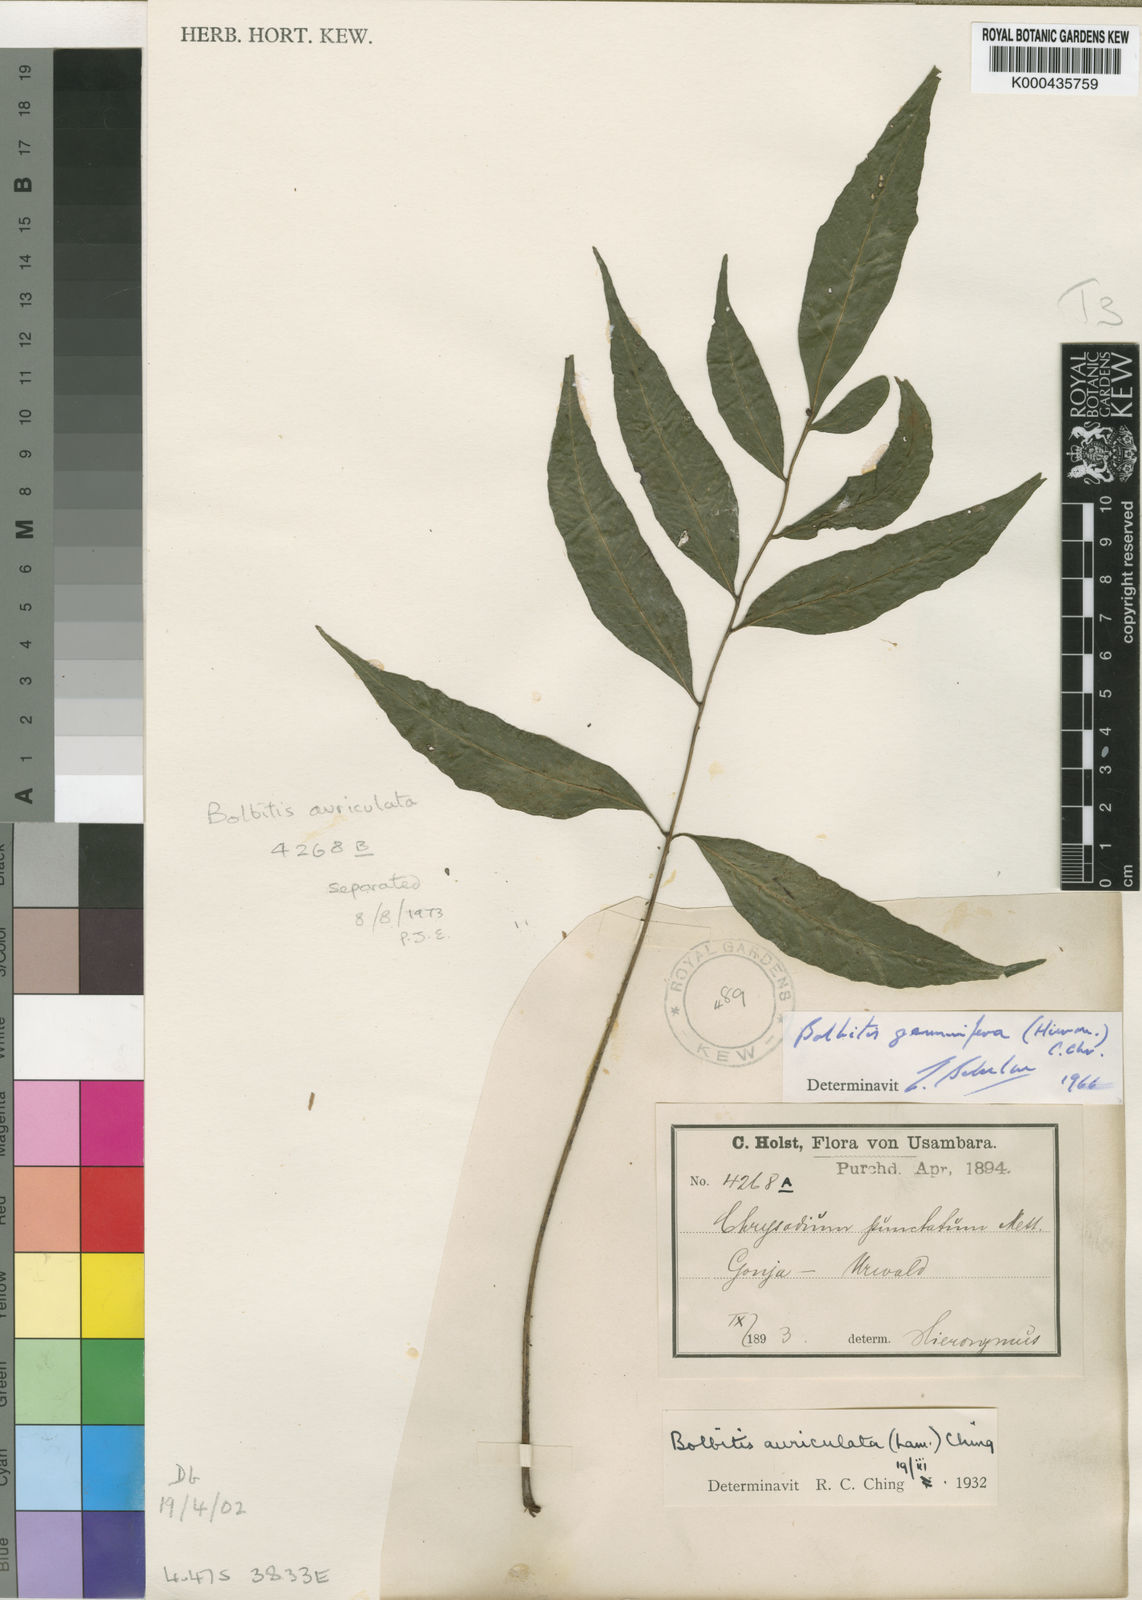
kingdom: Plantae
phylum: Tracheophyta
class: Polypodiopsida
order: Polypodiales
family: Dryopteridaceae
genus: Bolbitis
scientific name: Bolbitis
